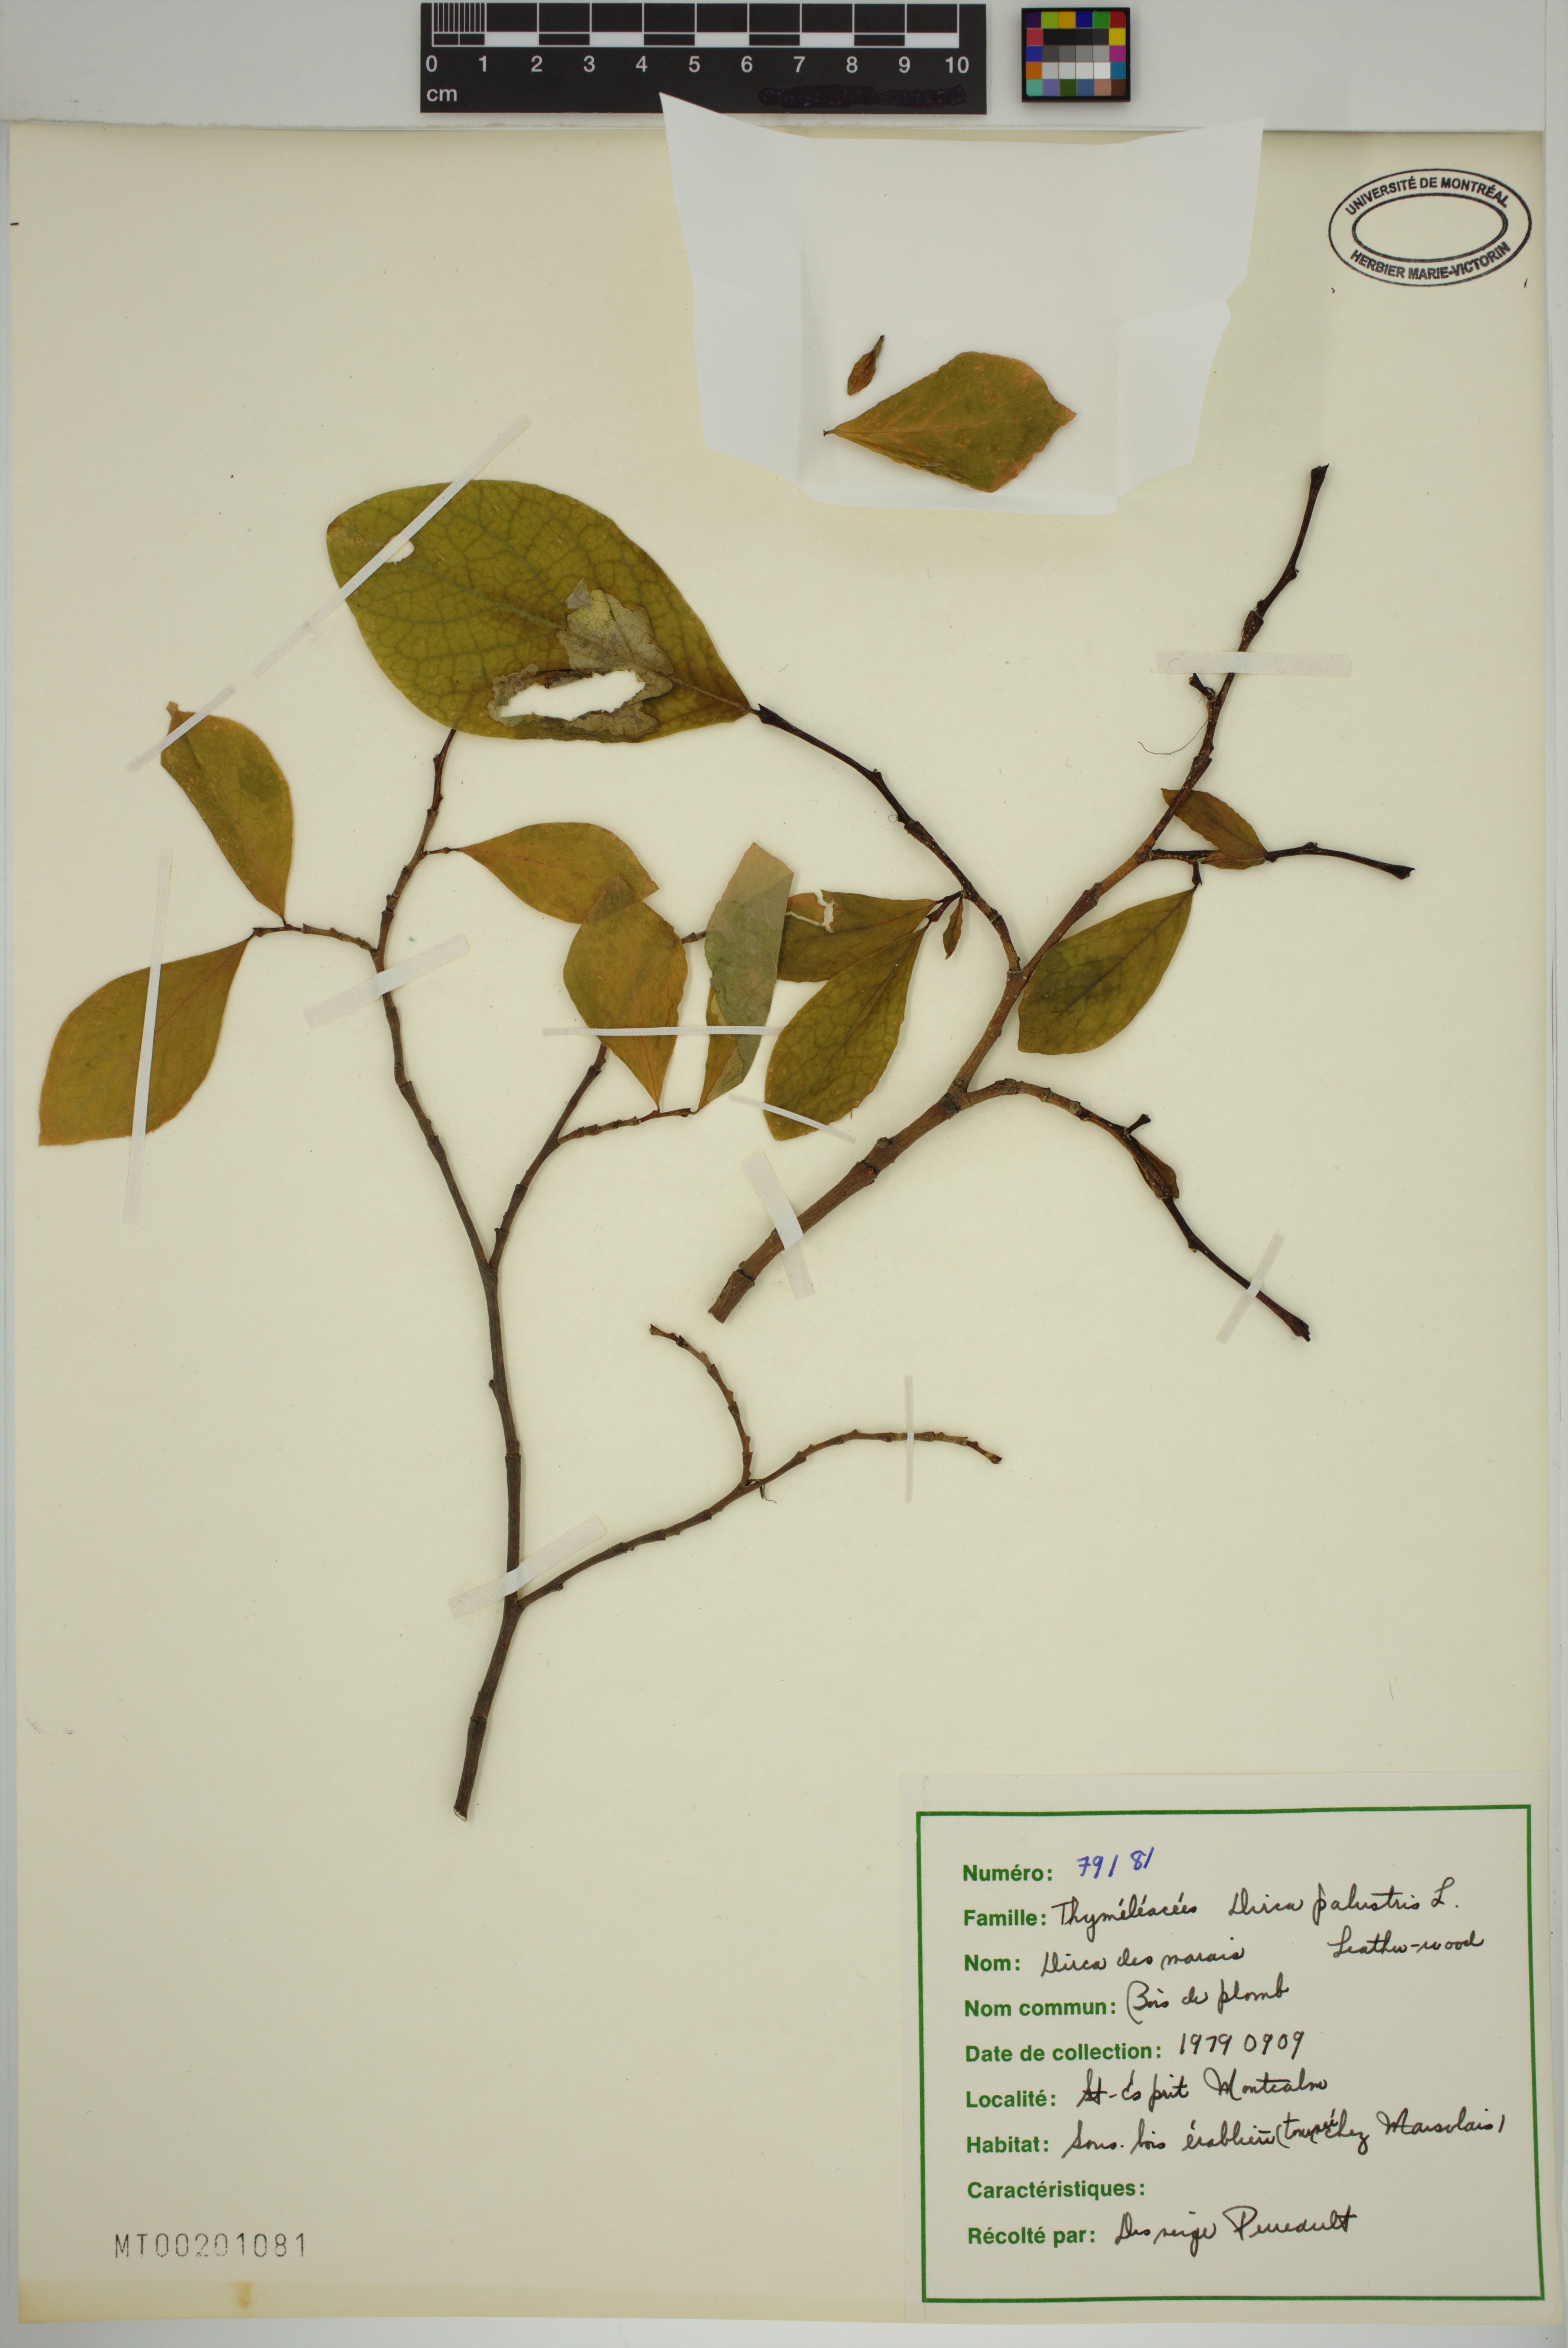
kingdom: Plantae
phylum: Tracheophyta
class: Magnoliopsida
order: Malvales
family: Thymelaeaceae
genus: Dirca
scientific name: Dirca palustris
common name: Leatherwood
